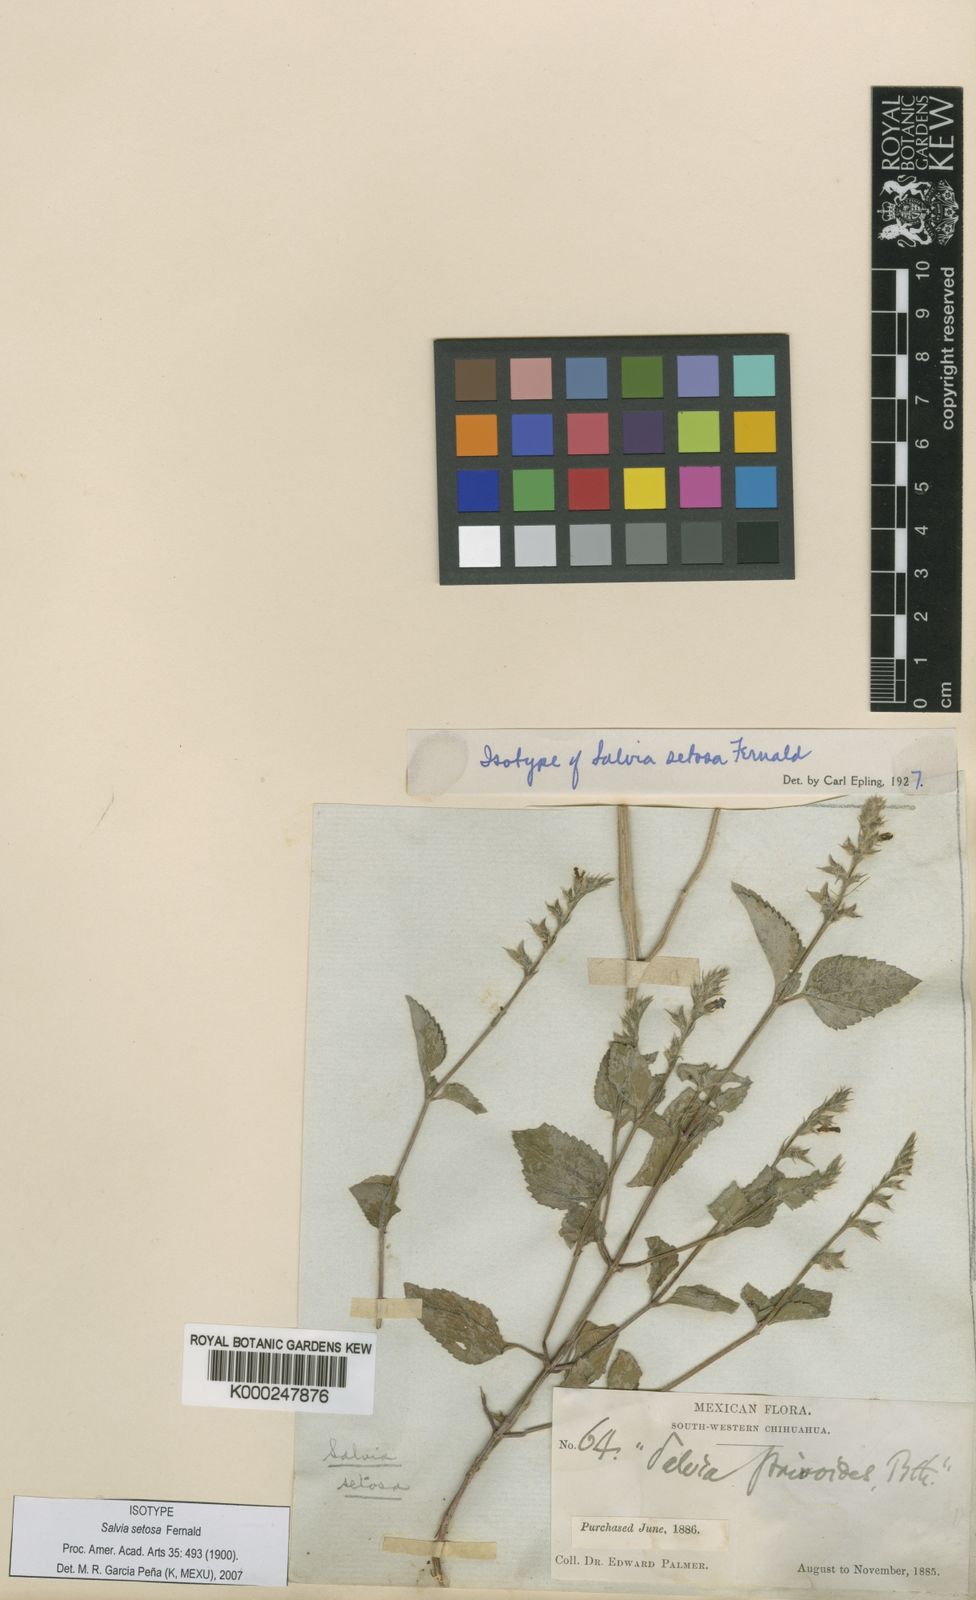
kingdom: Plantae
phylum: Tracheophyta
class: Magnoliopsida
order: Lamiales
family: Lamiaceae
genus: Salvia
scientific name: Salvia occidentalis
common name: West indian sage
